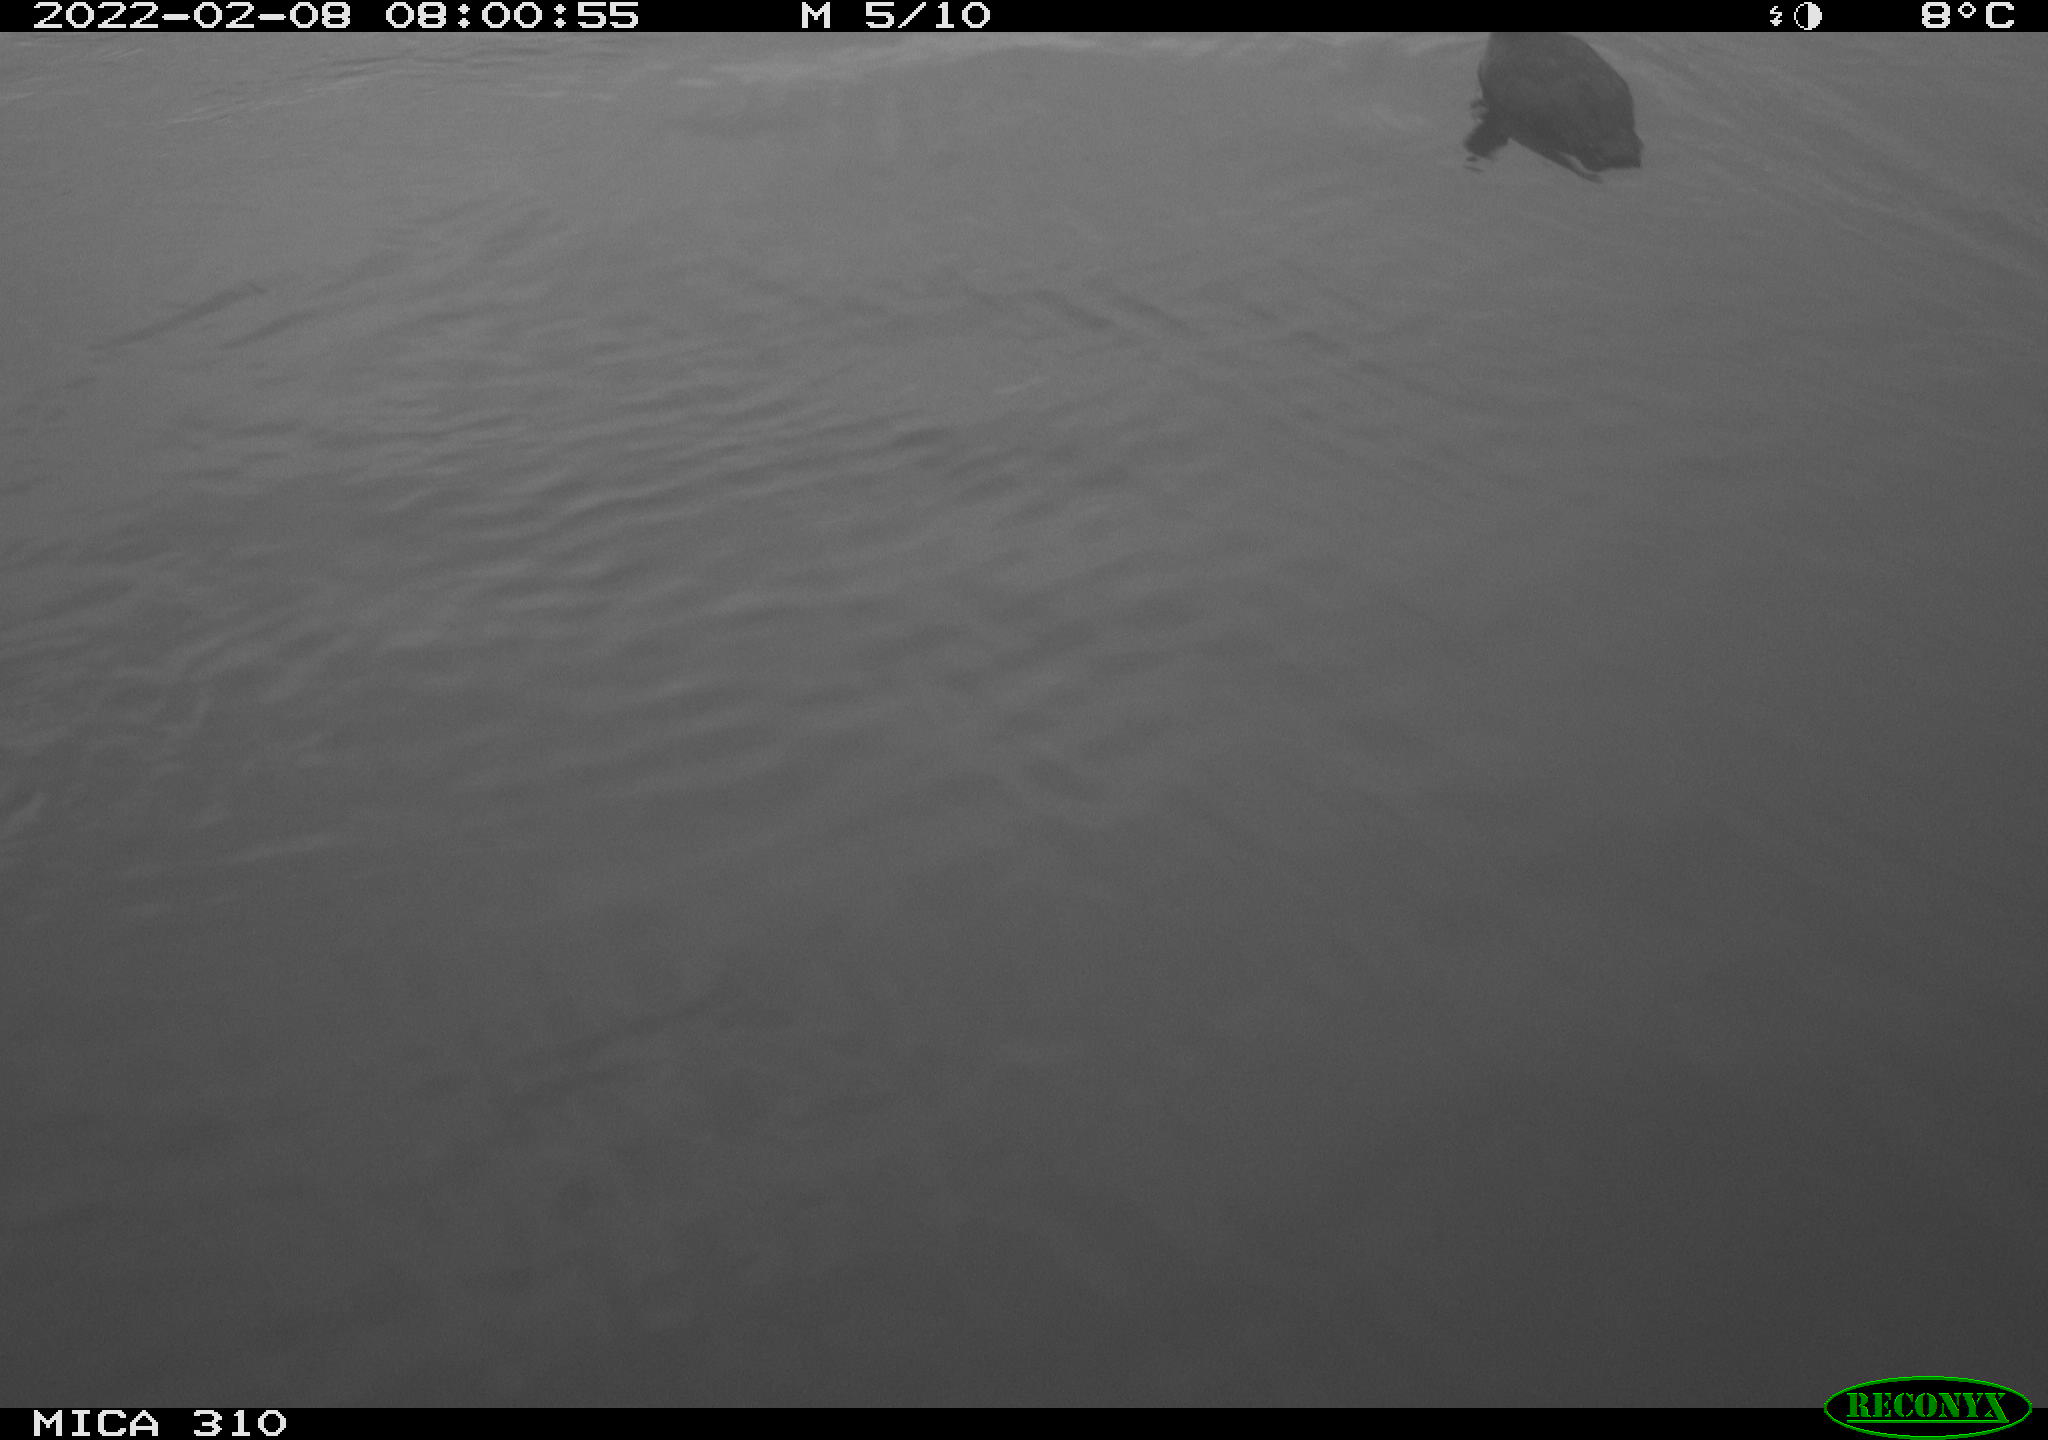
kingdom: Animalia
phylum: Chordata
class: Aves
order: Gruiformes
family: Rallidae
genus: Fulica
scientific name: Fulica atra
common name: Eurasian coot
